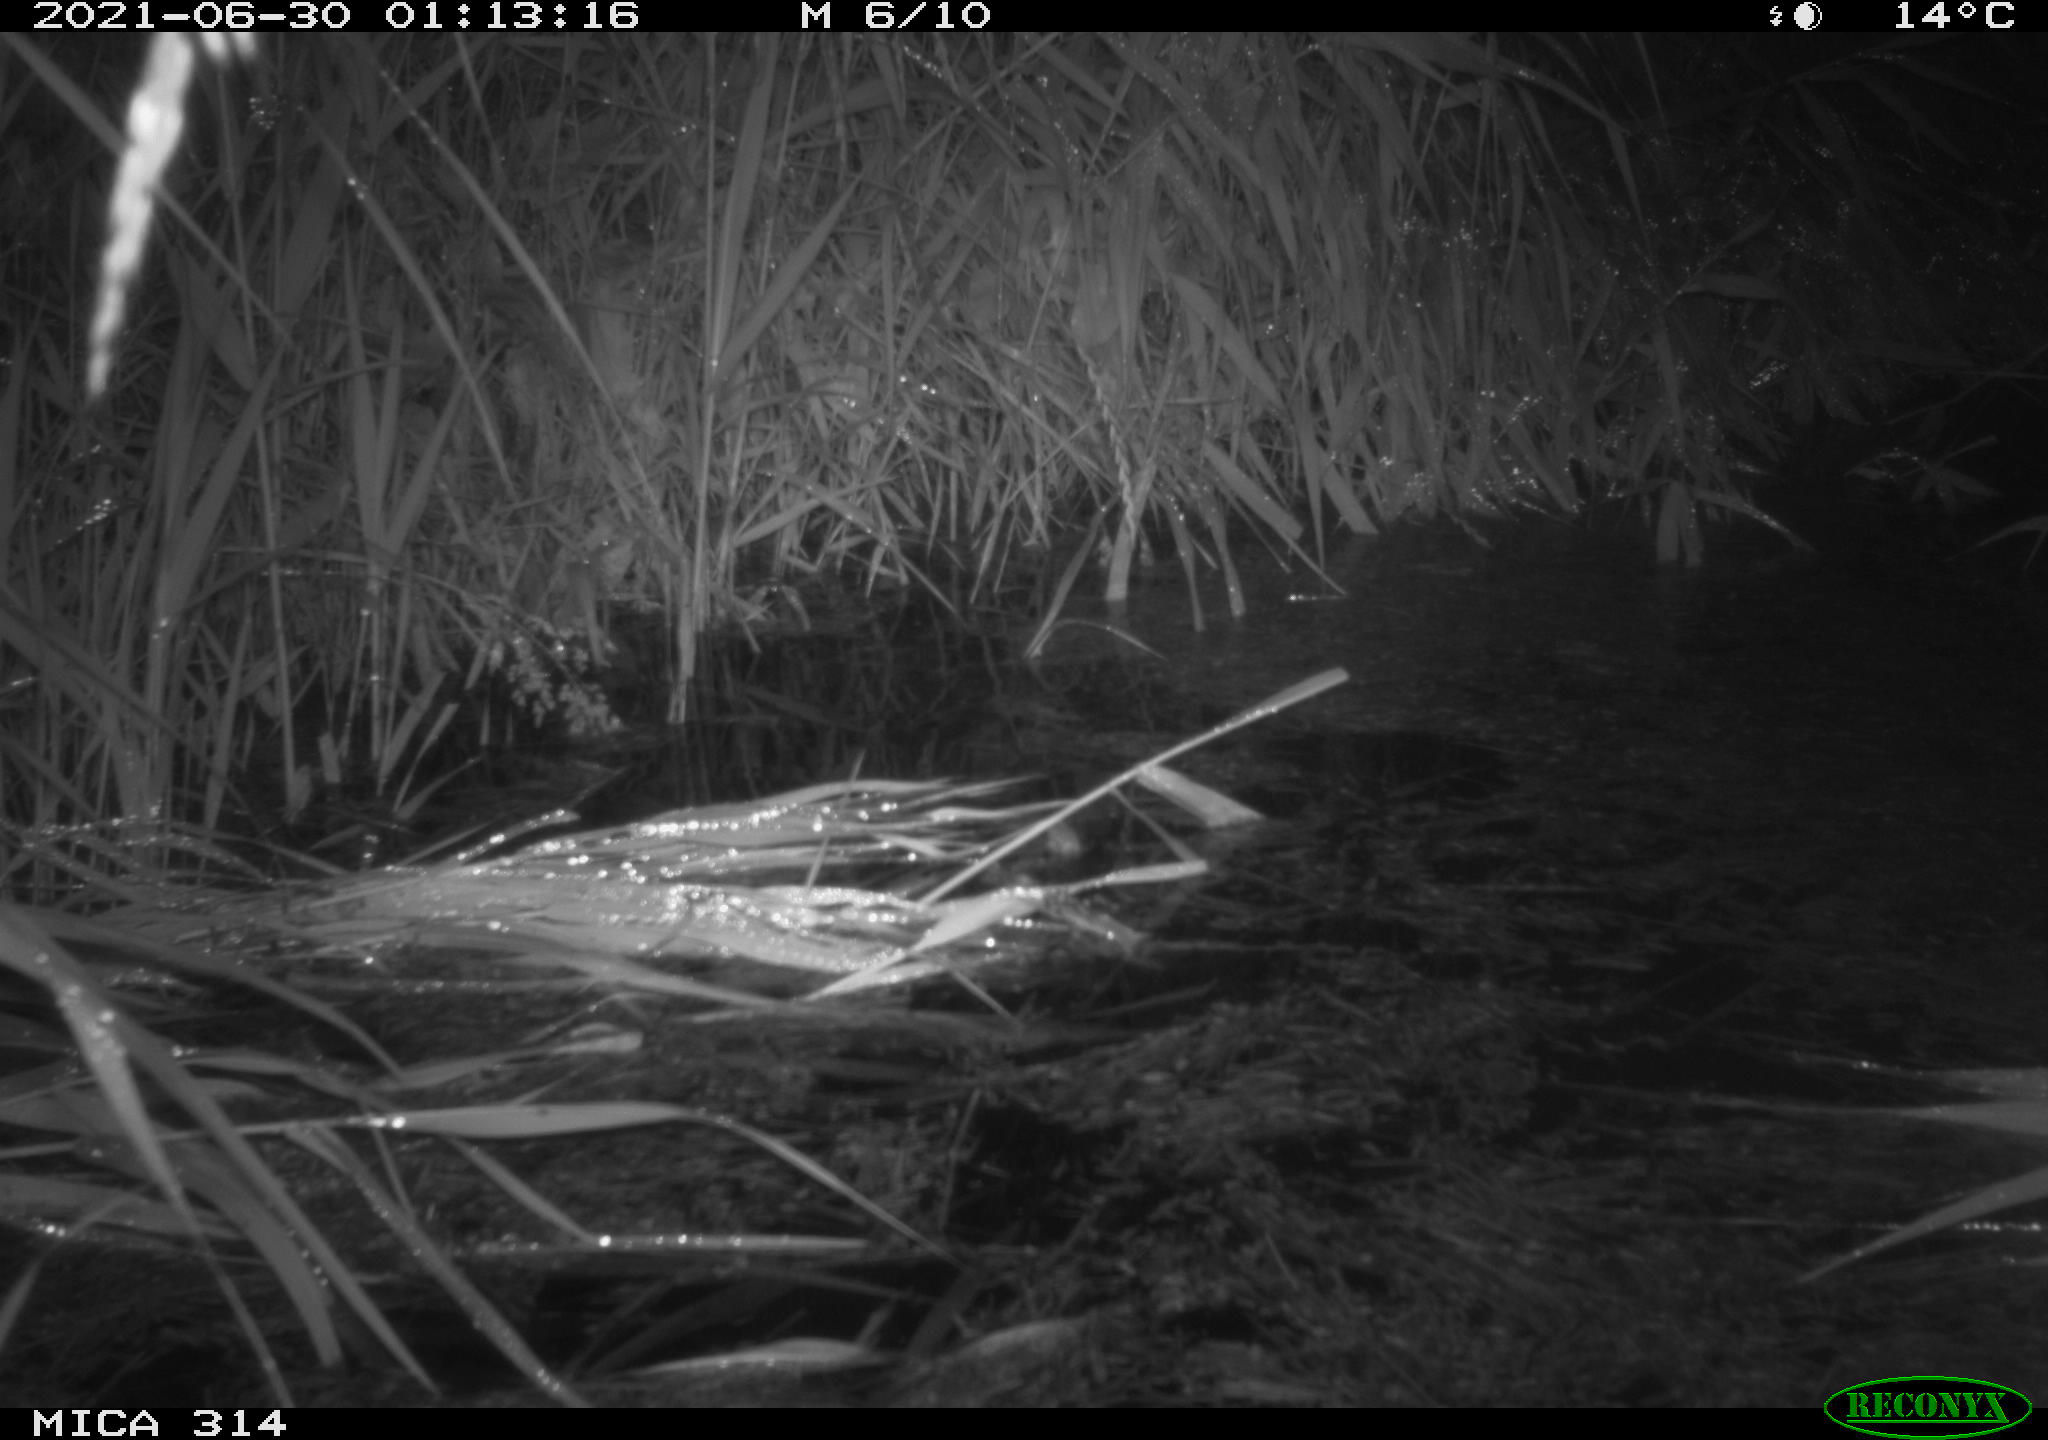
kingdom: Animalia
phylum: Chordata
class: Mammalia
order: Rodentia
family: Muridae
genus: Rattus
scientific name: Rattus norvegicus
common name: Brown rat
